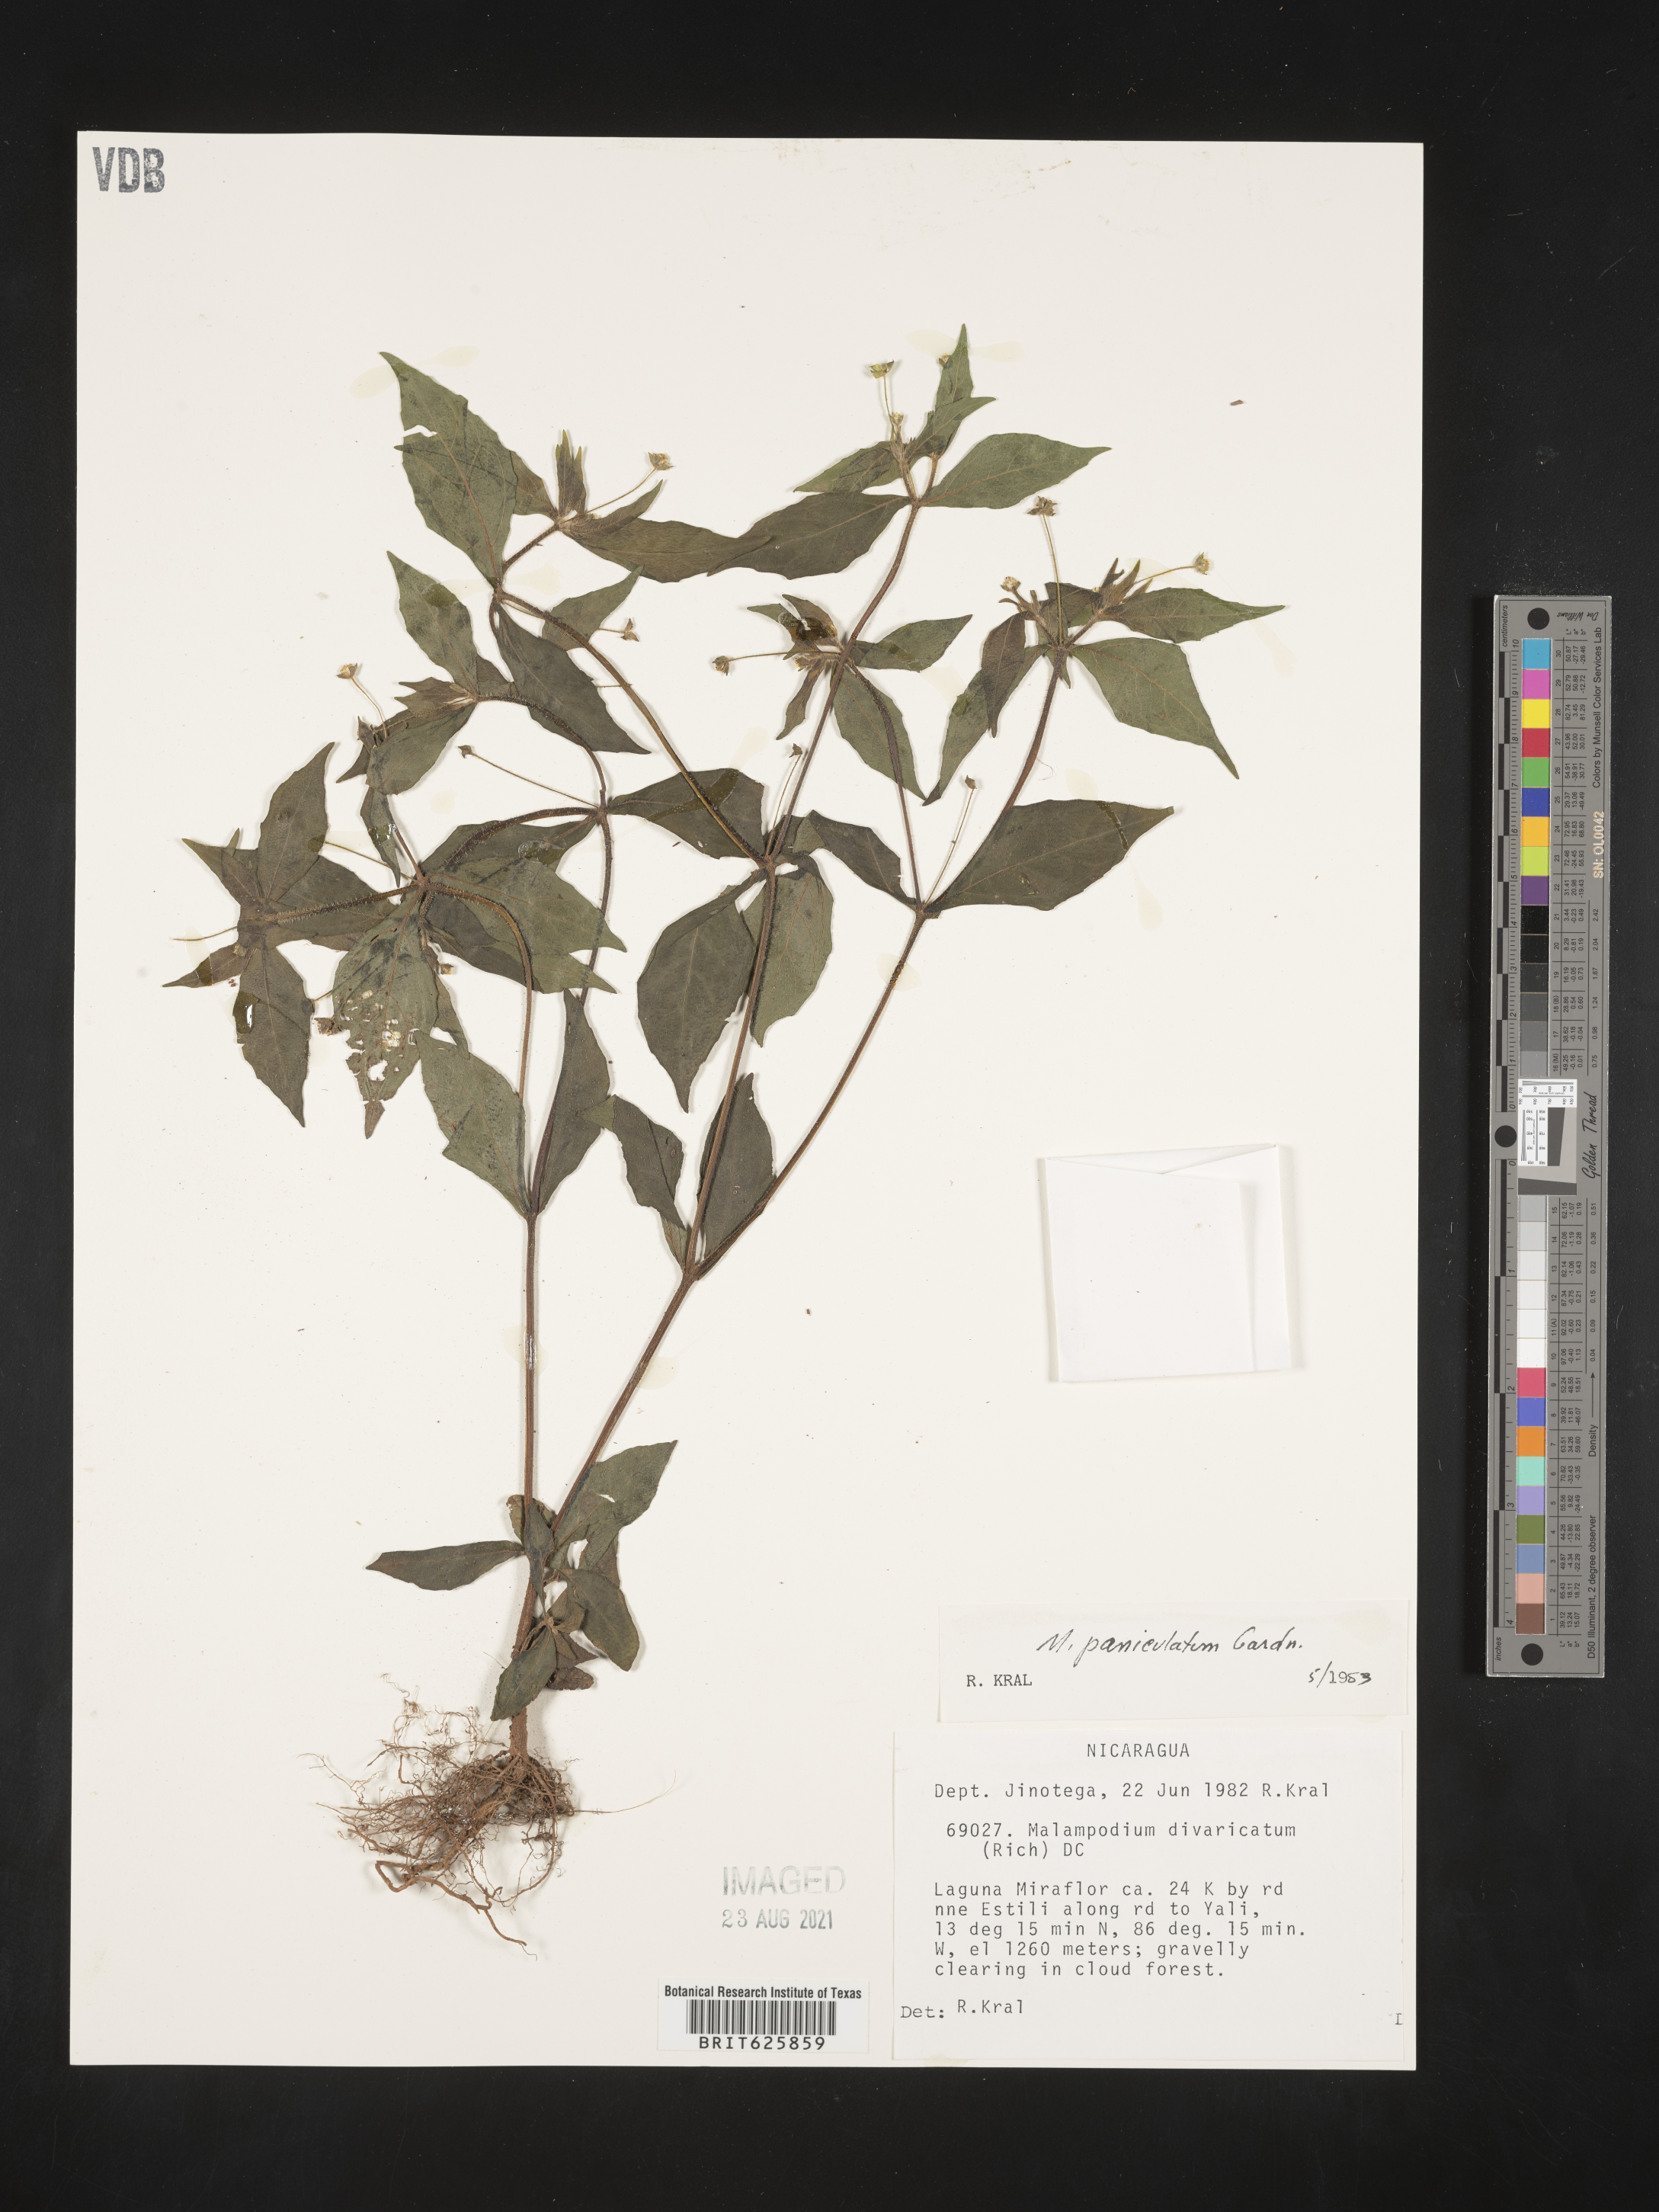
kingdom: Plantae
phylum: Tracheophyta
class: Magnoliopsida
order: Asterales
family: Asteraceae
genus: Melampodium
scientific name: Melampodium paniculatum
